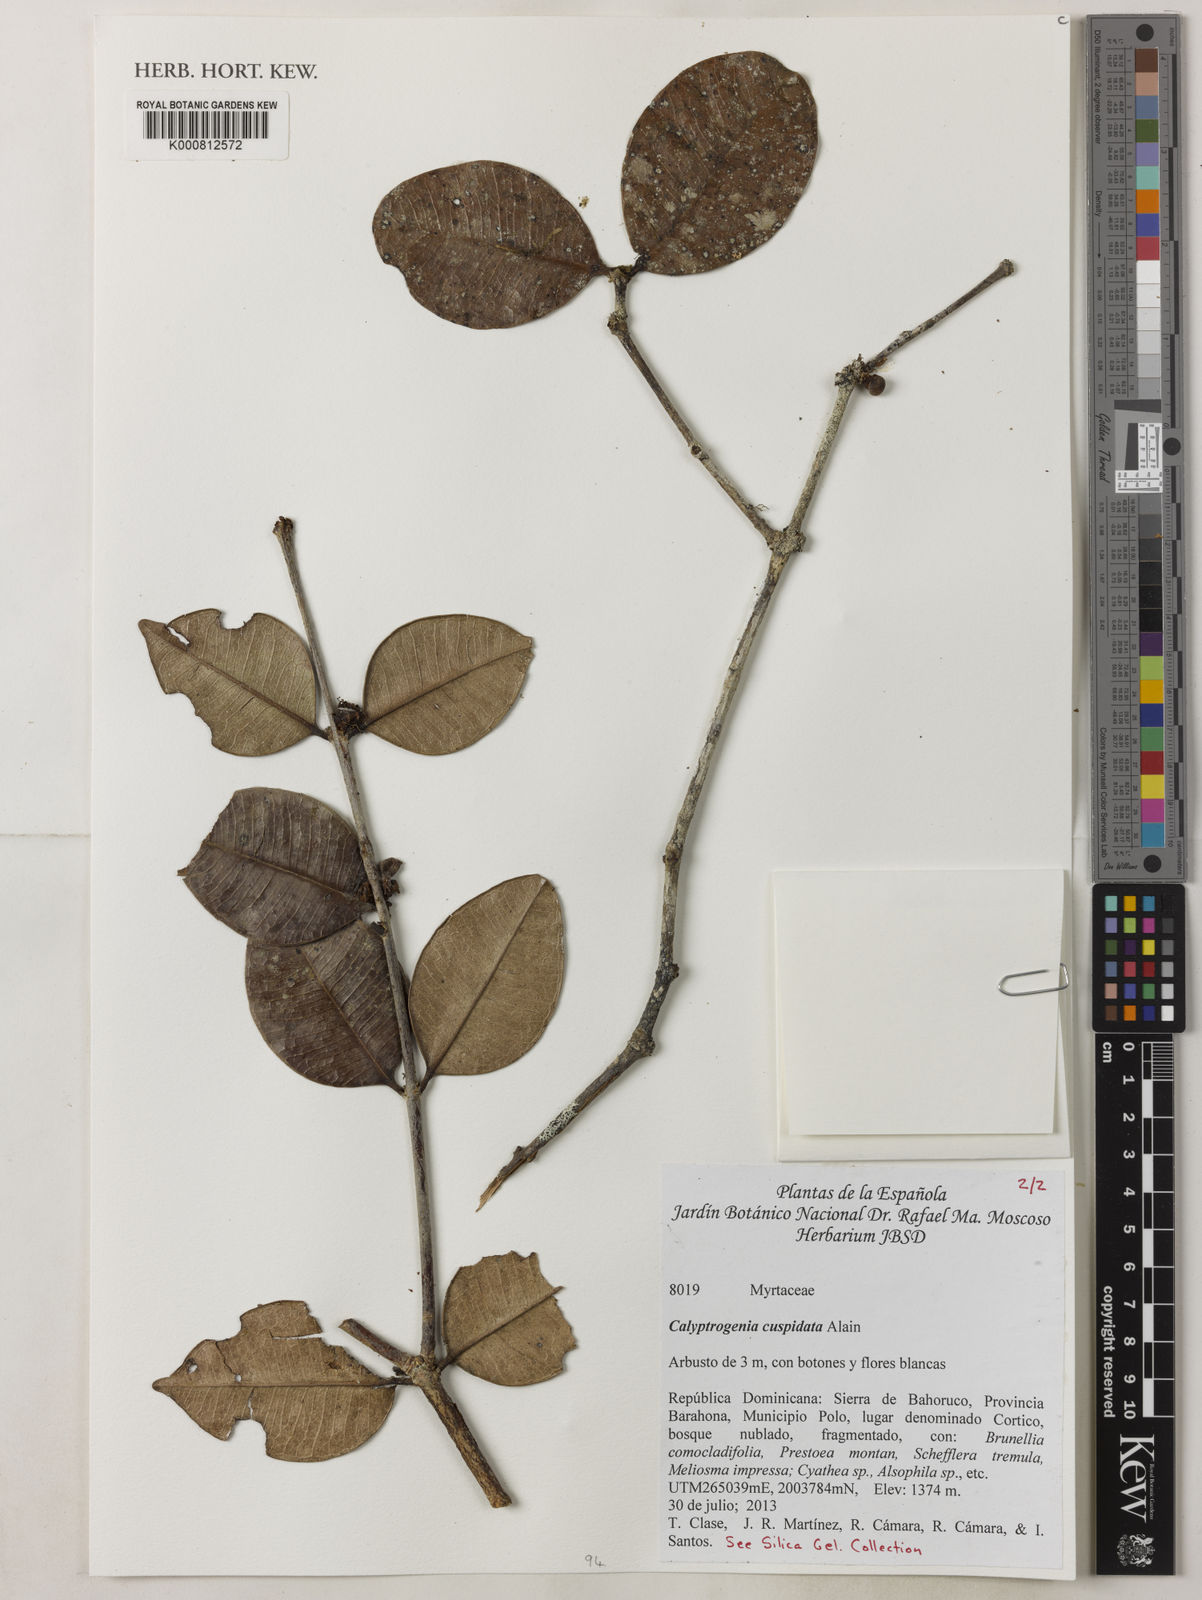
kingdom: Plantae
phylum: Tracheophyta
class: Magnoliopsida
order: Myrtales
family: Myrtaceae
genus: Eugenia
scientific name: Eugenia cryptocardia
